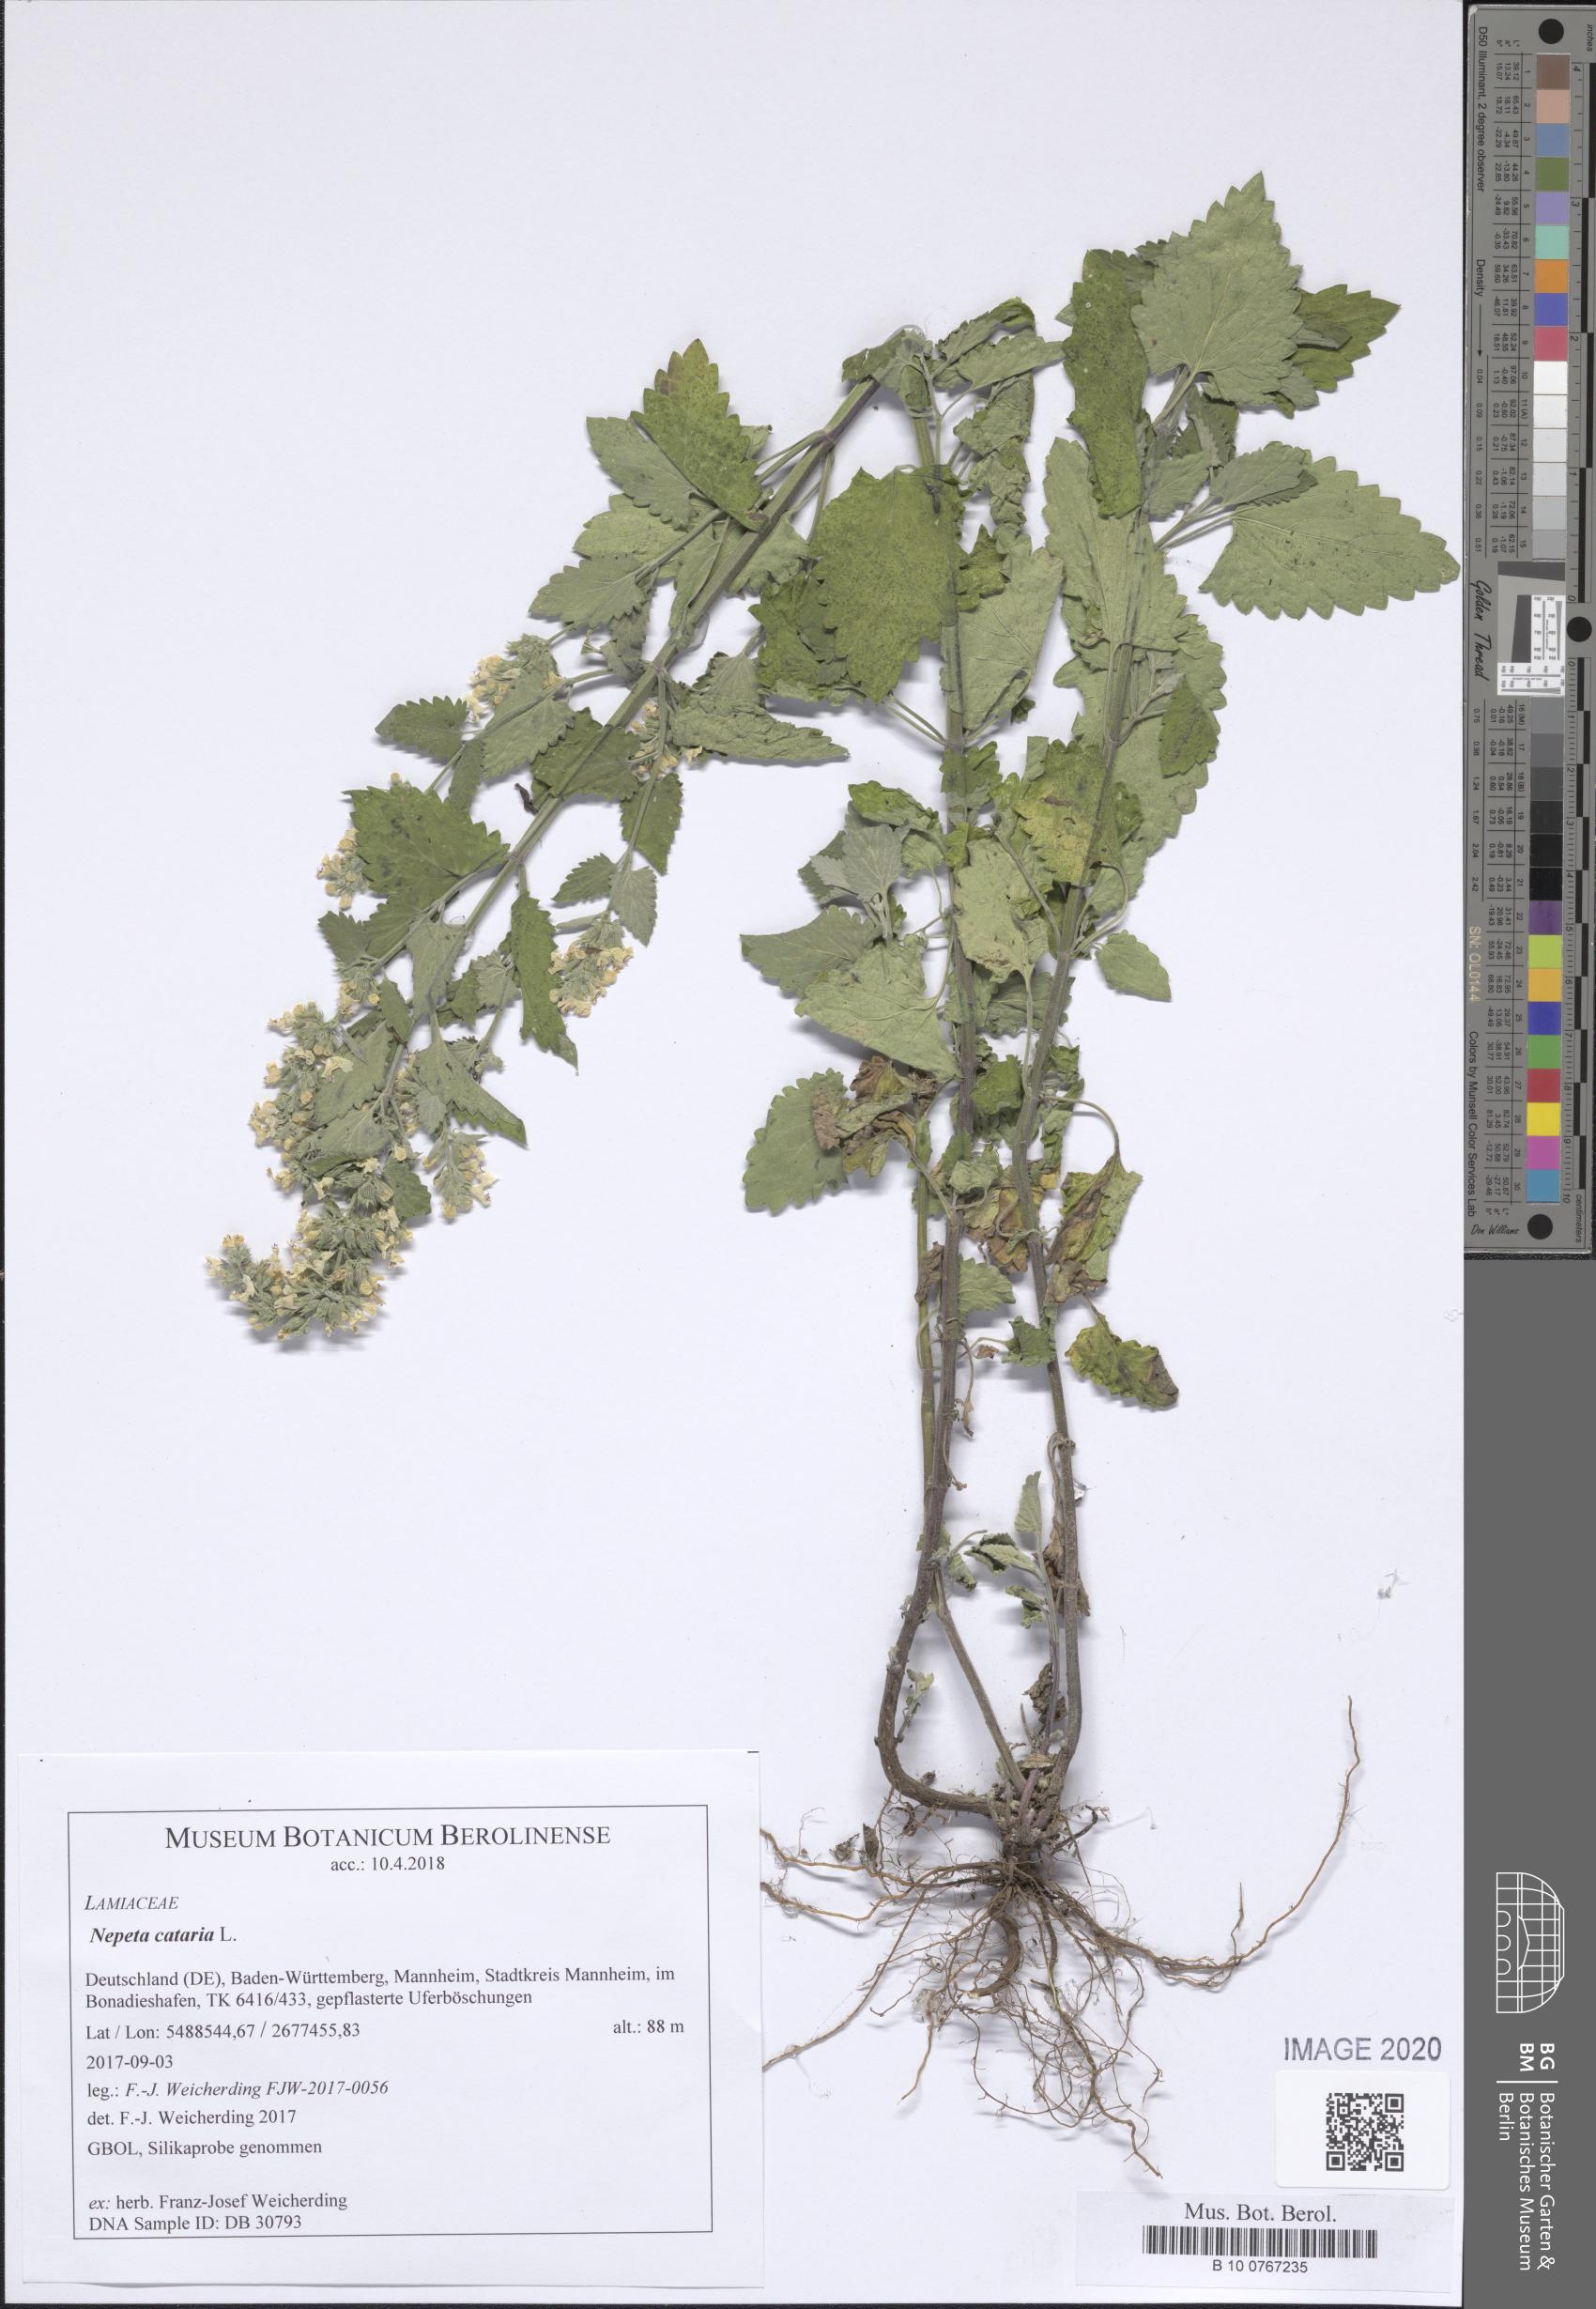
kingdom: Plantae
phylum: Tracheophyta
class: Magnoliopsida
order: Lamiales
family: Lamiaceae
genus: Nepeta
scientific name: Nepeta cataria
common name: Catnip
